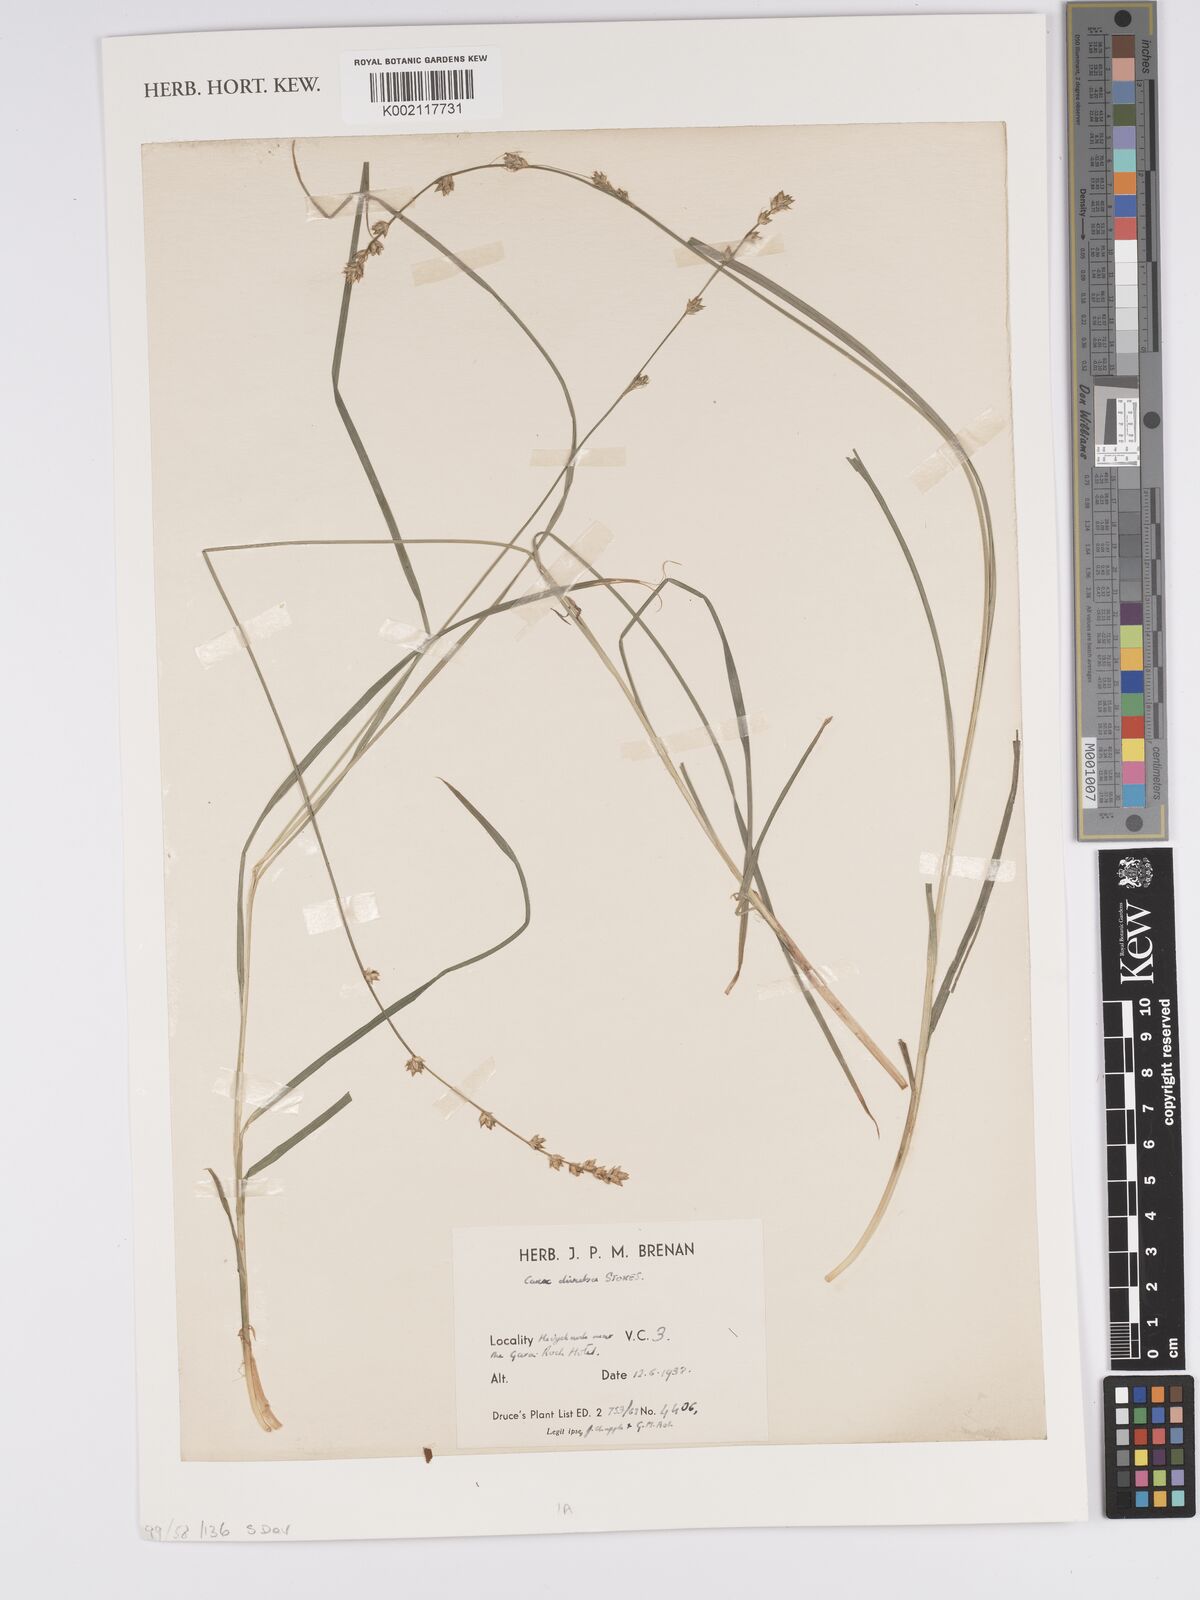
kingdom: Plantae
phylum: Tracheophyta
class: Liliopsida
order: Poales
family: Cyperaceae
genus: Carex
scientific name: Carex diandra
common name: Lesser tussock-sedge
